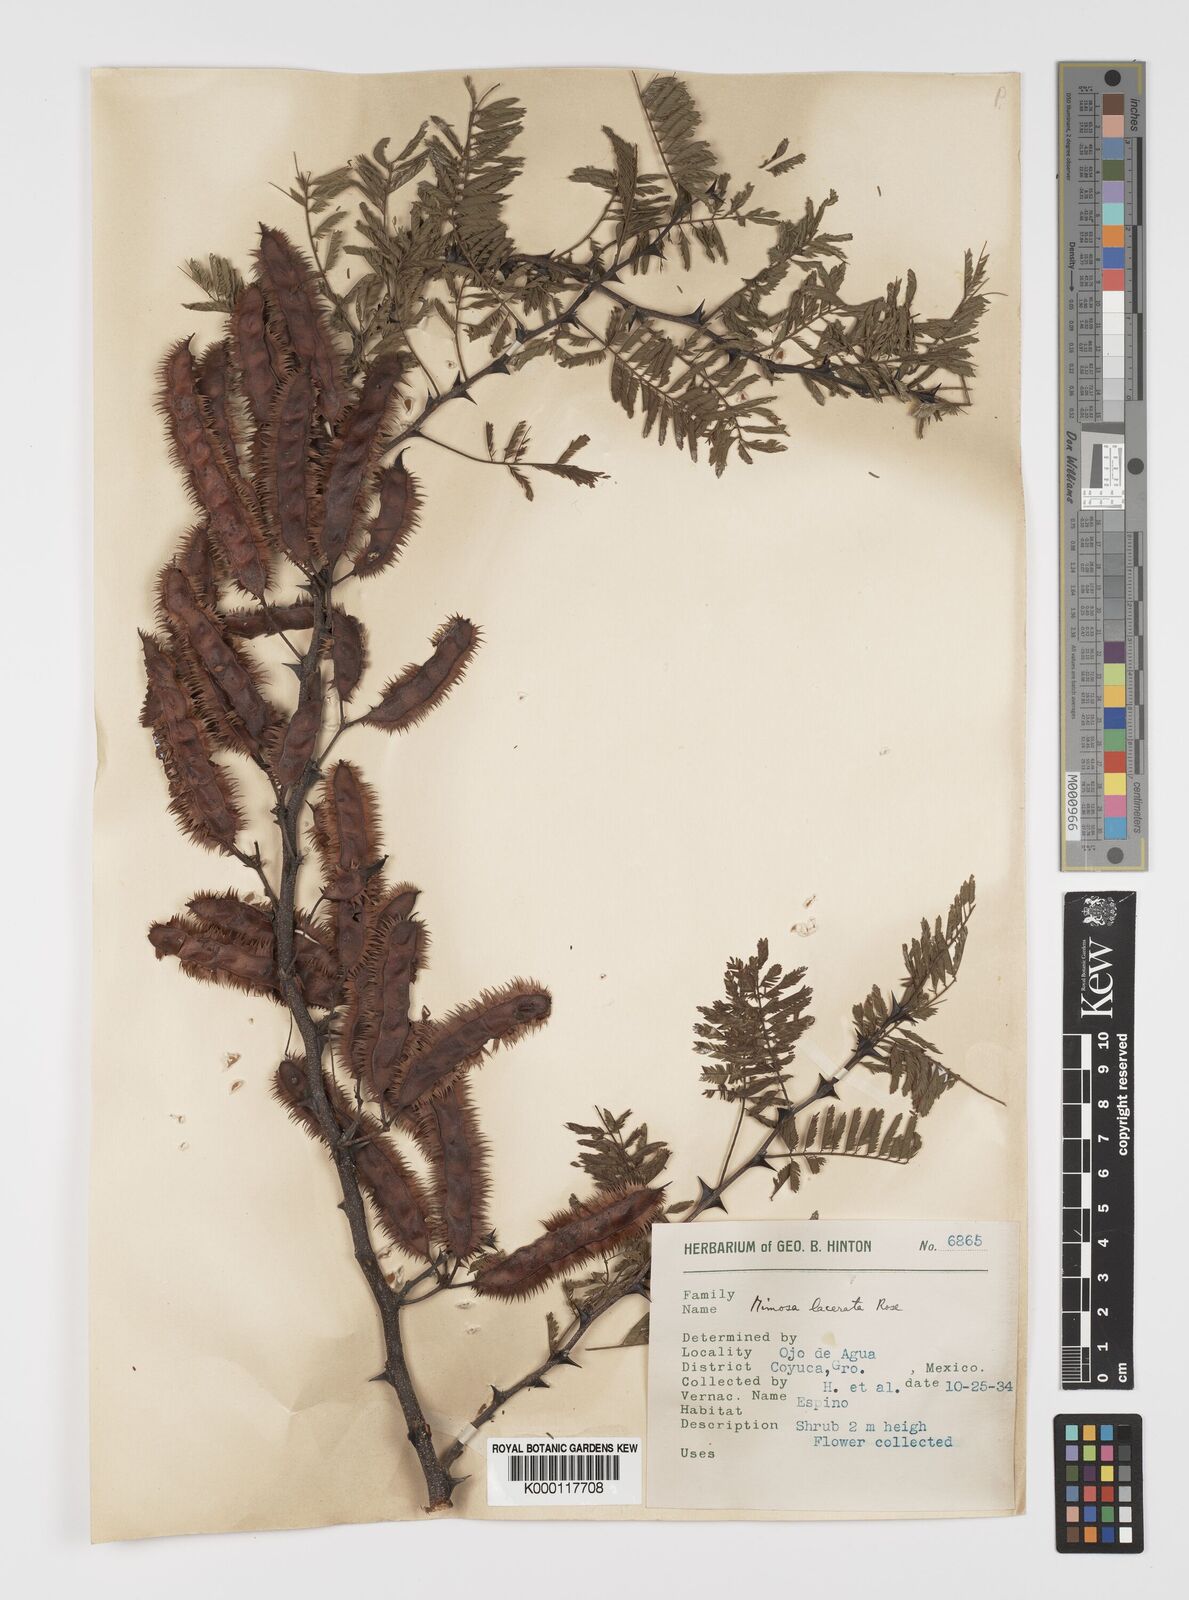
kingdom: Plantae
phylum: Tracheophyta
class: Magnoliopsida
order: Fabales
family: Fabaceae
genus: Mimosa
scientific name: Mimosa lacerata
